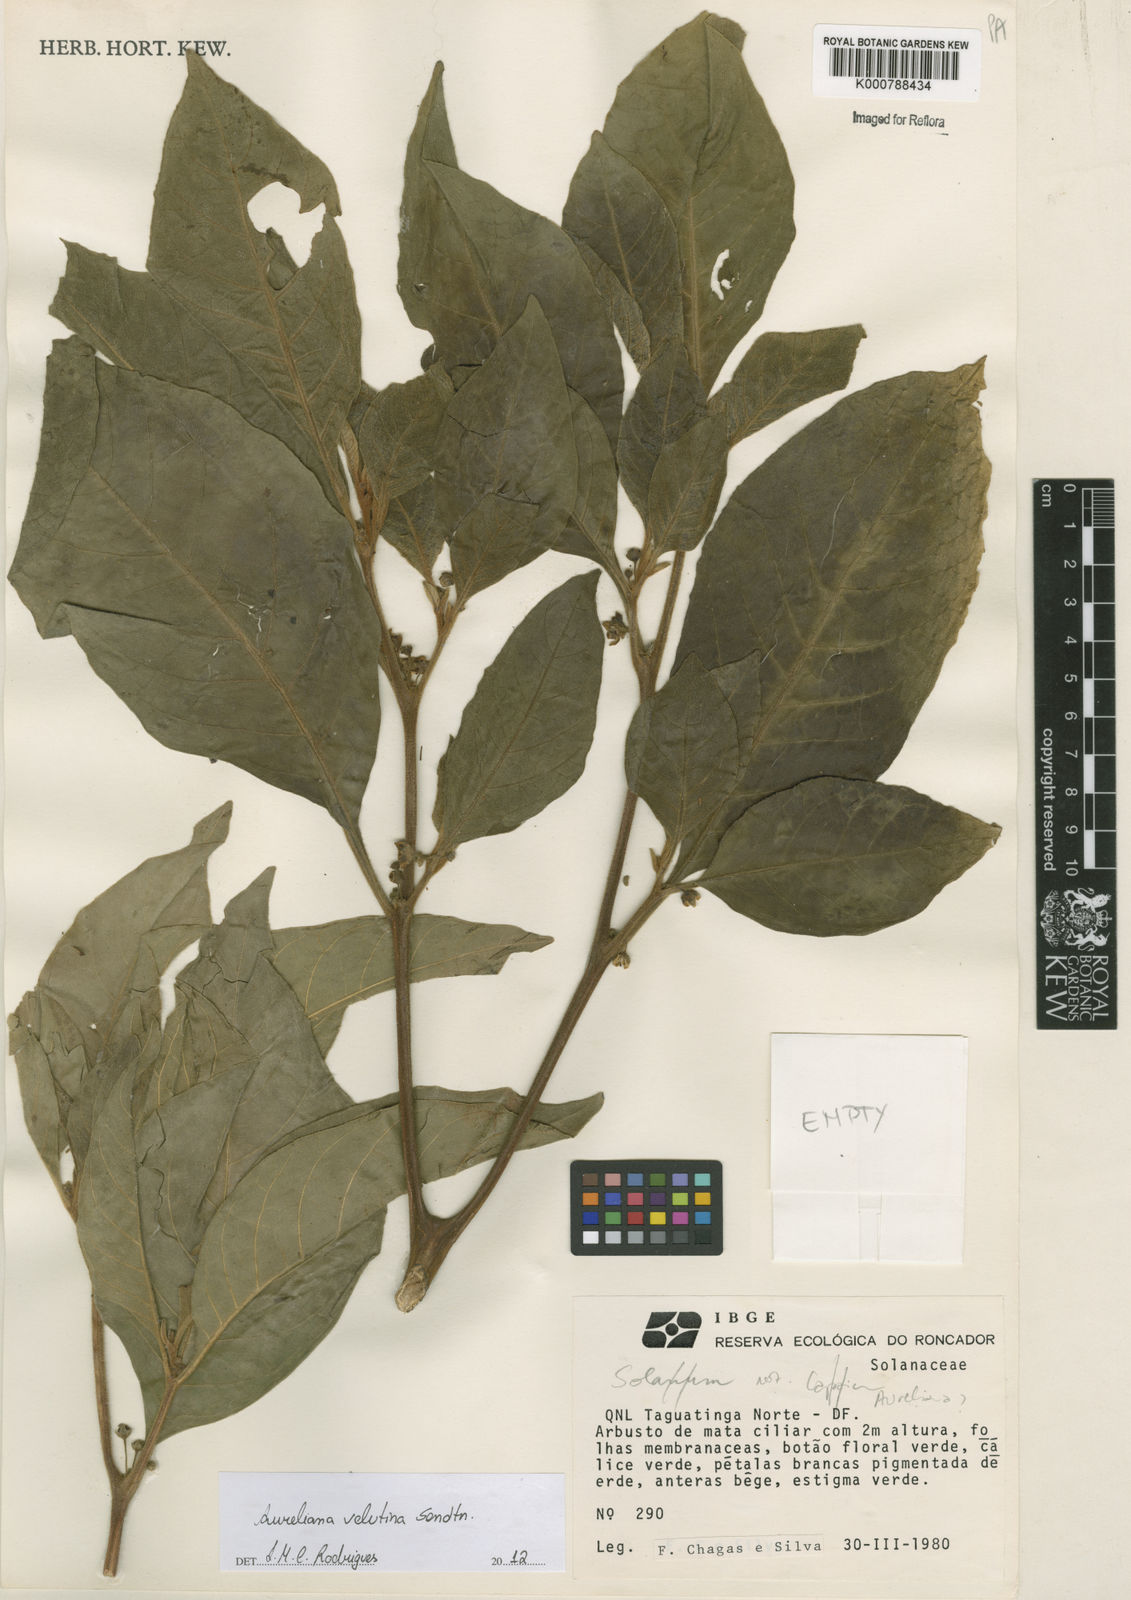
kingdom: Plantae
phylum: Tracheophyta
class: Magnoliopsida
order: Solanales
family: Solanaceae
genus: Athenaea
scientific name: Athenaea velutina
